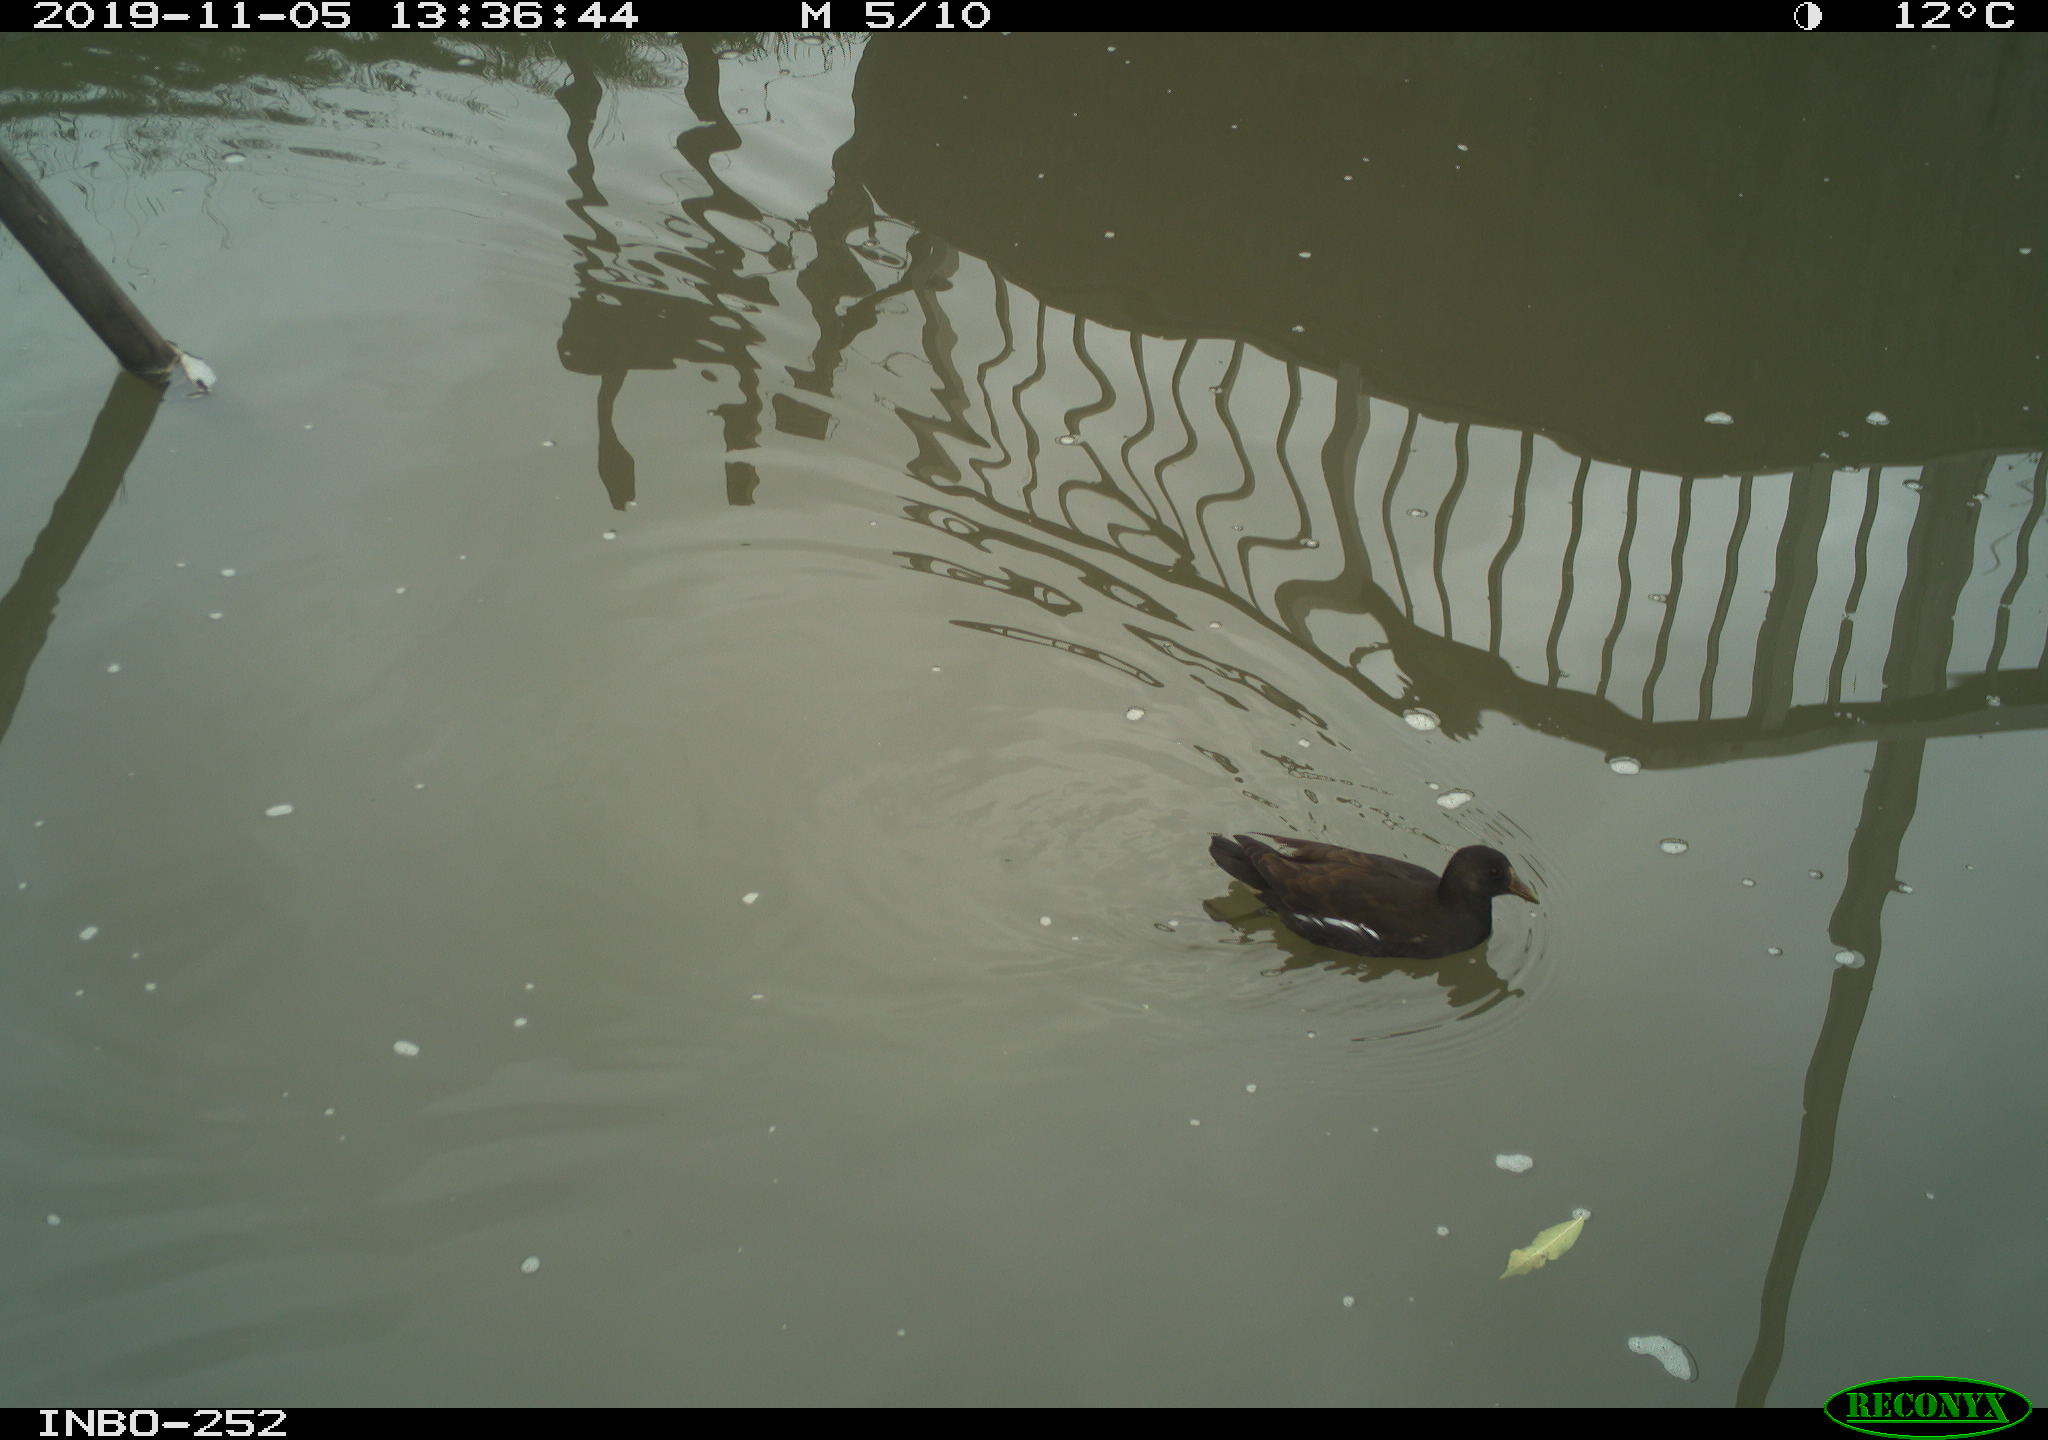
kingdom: Animalia
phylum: Chordata
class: Aves
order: Gruiformes
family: Rallidae
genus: Gallinula
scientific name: Gallinula chloropus
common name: Common moorhen
